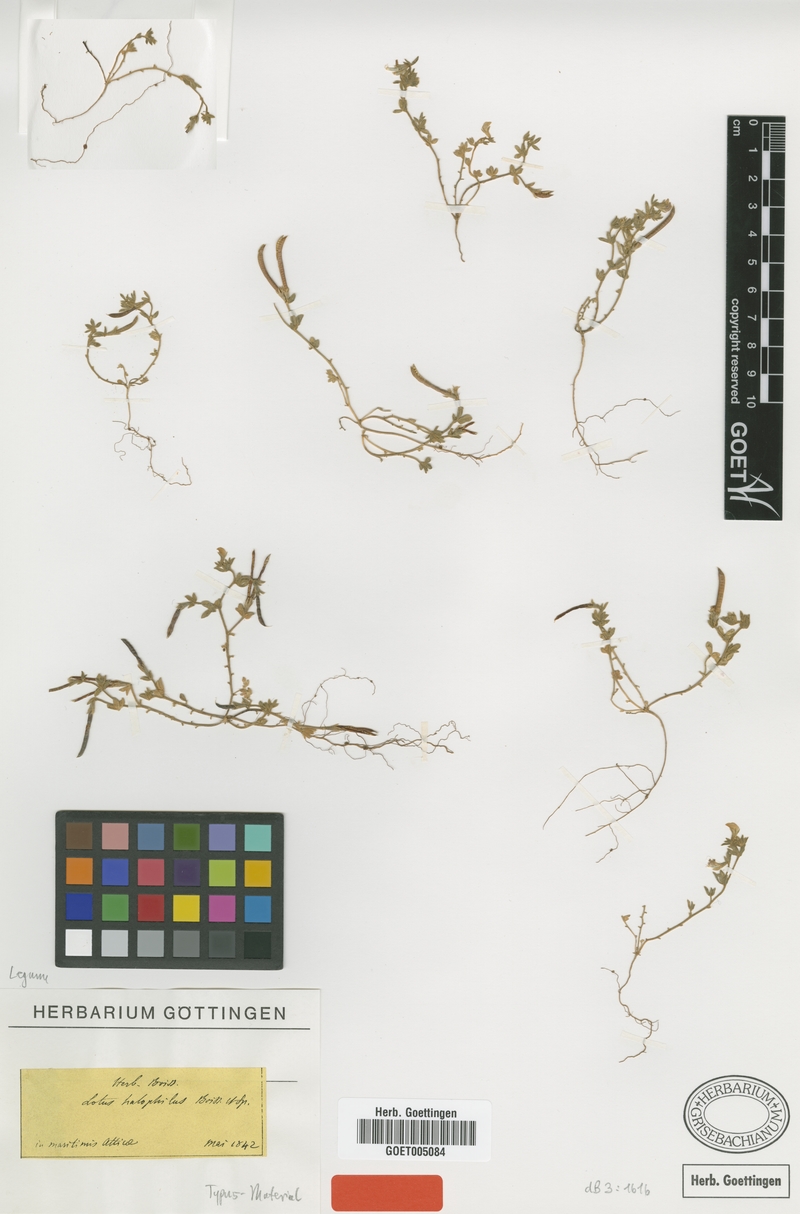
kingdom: Plantae
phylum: Tracheophyta
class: Magnoliopsida
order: Fabales
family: Fabaceae
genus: Lotus
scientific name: Lotus halophilus
